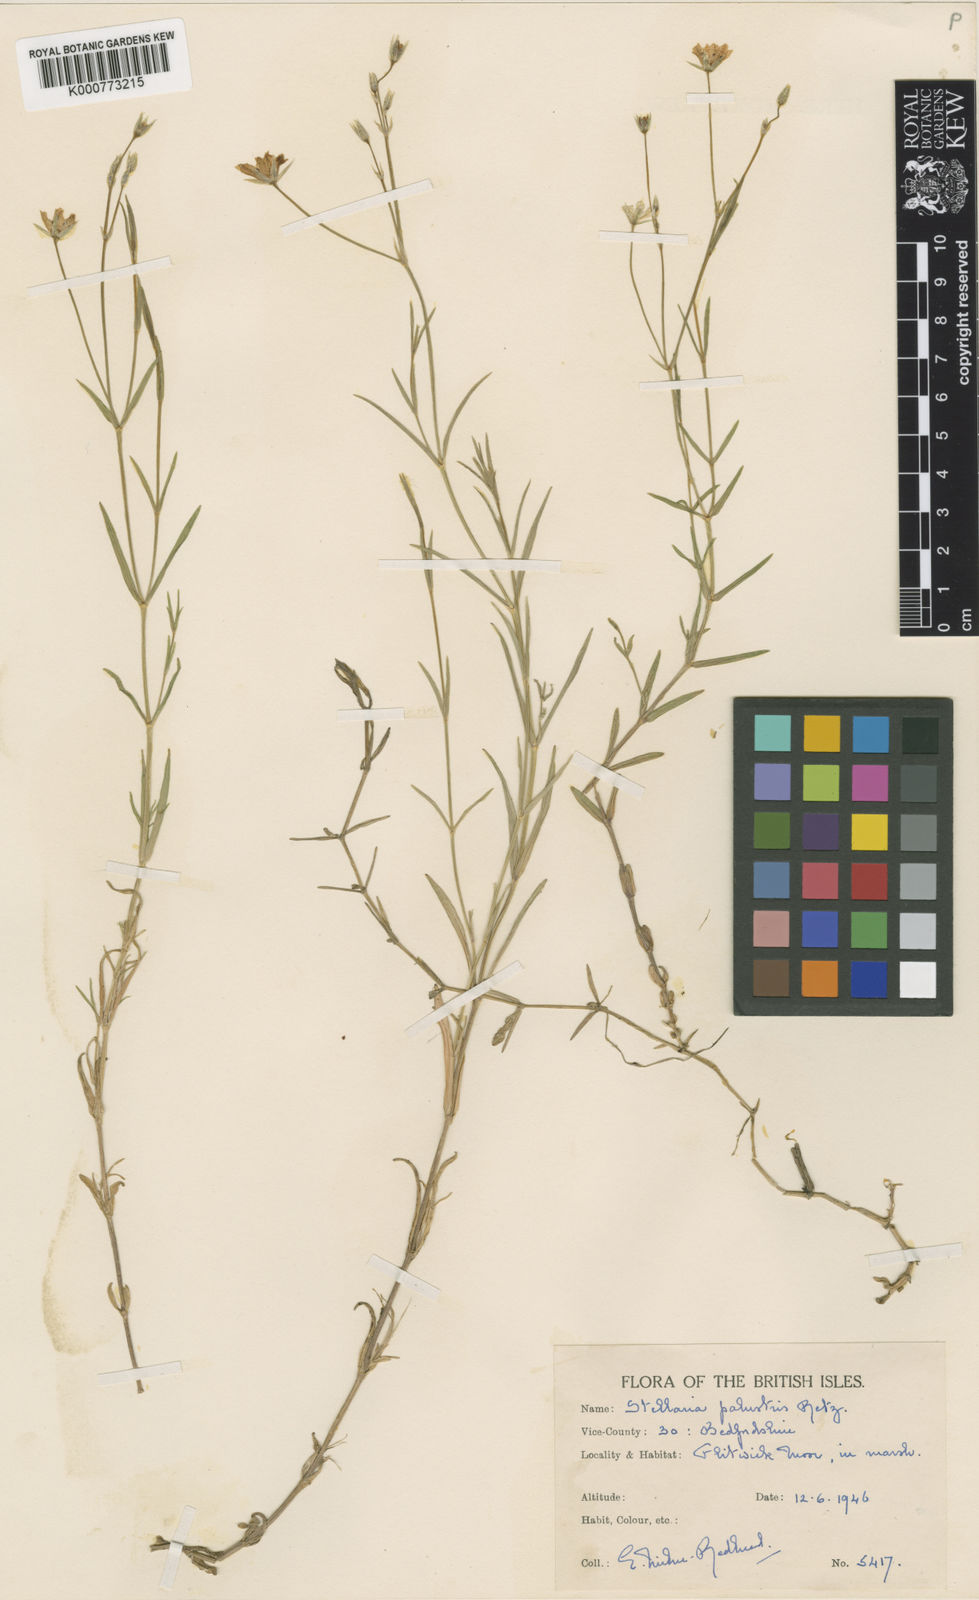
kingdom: Plantae
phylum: Tracheophyta
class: Magnoliopsida
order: Caryophyllales
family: Caryophyllaceae
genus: Stellaria
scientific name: Stellaria
